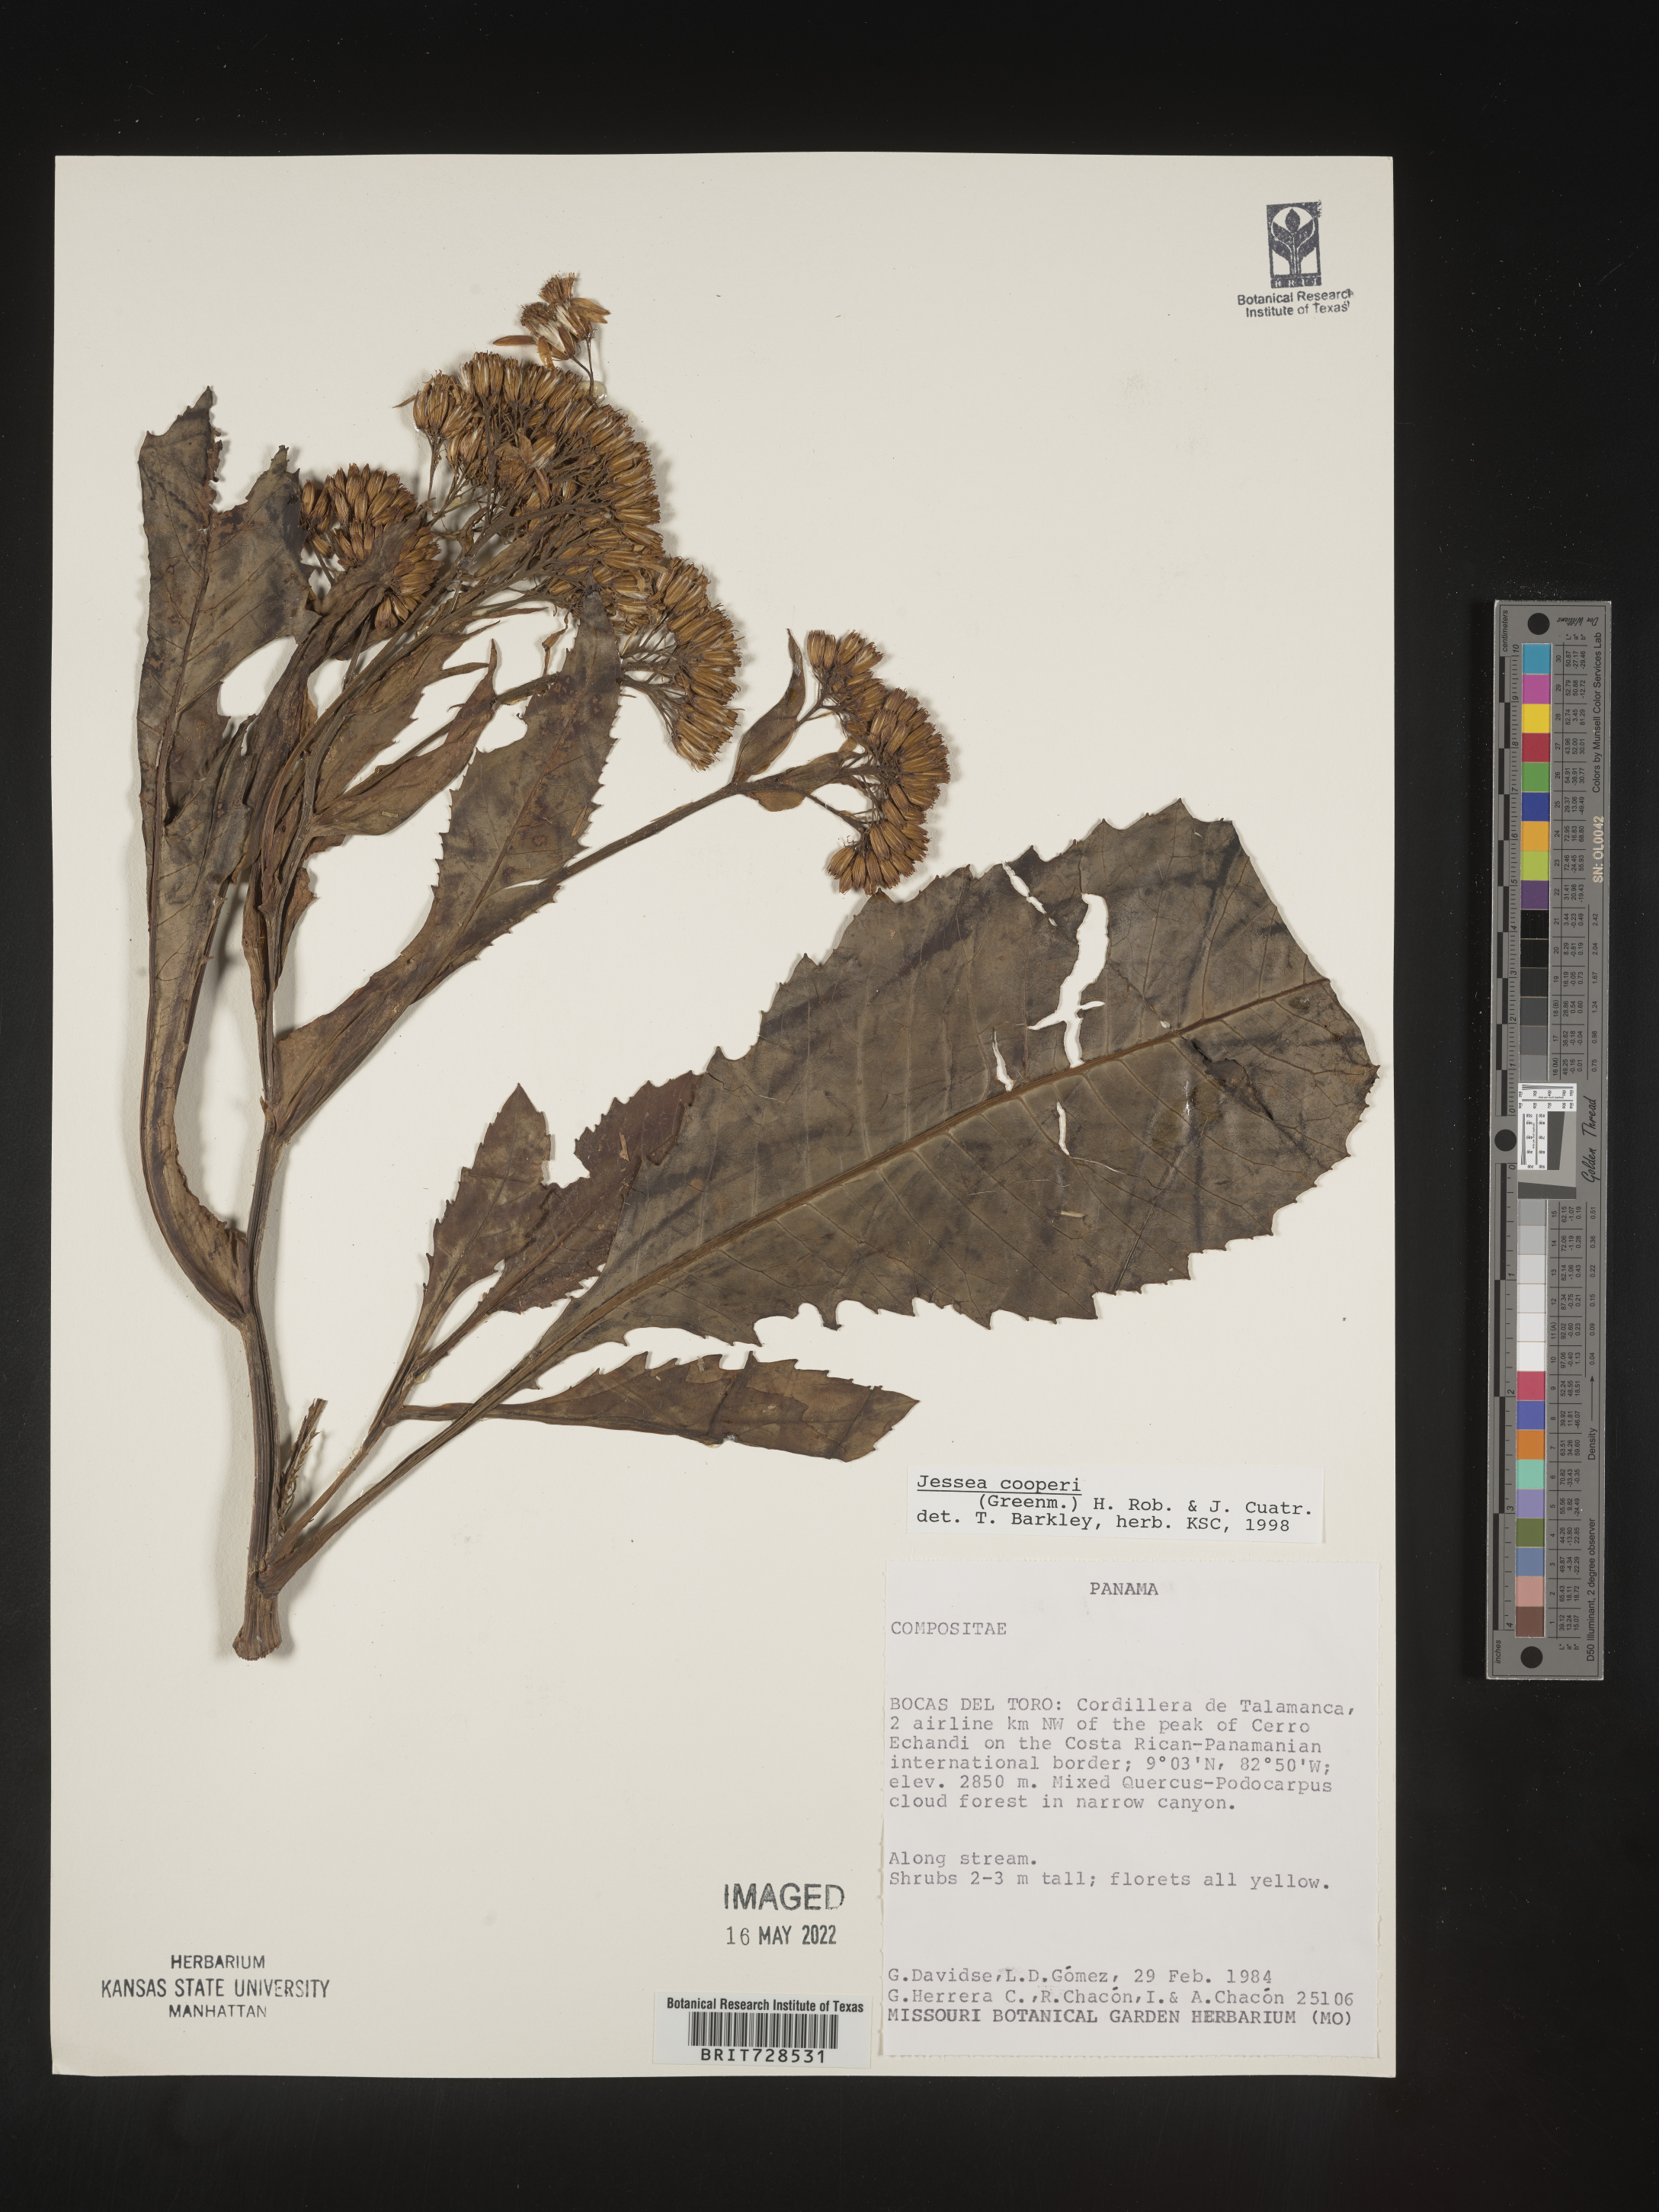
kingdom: Plantae
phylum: Tracheophyta
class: Magnoliopsida
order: Asterales
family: Asteraceae
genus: Jessea
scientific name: Jessea
